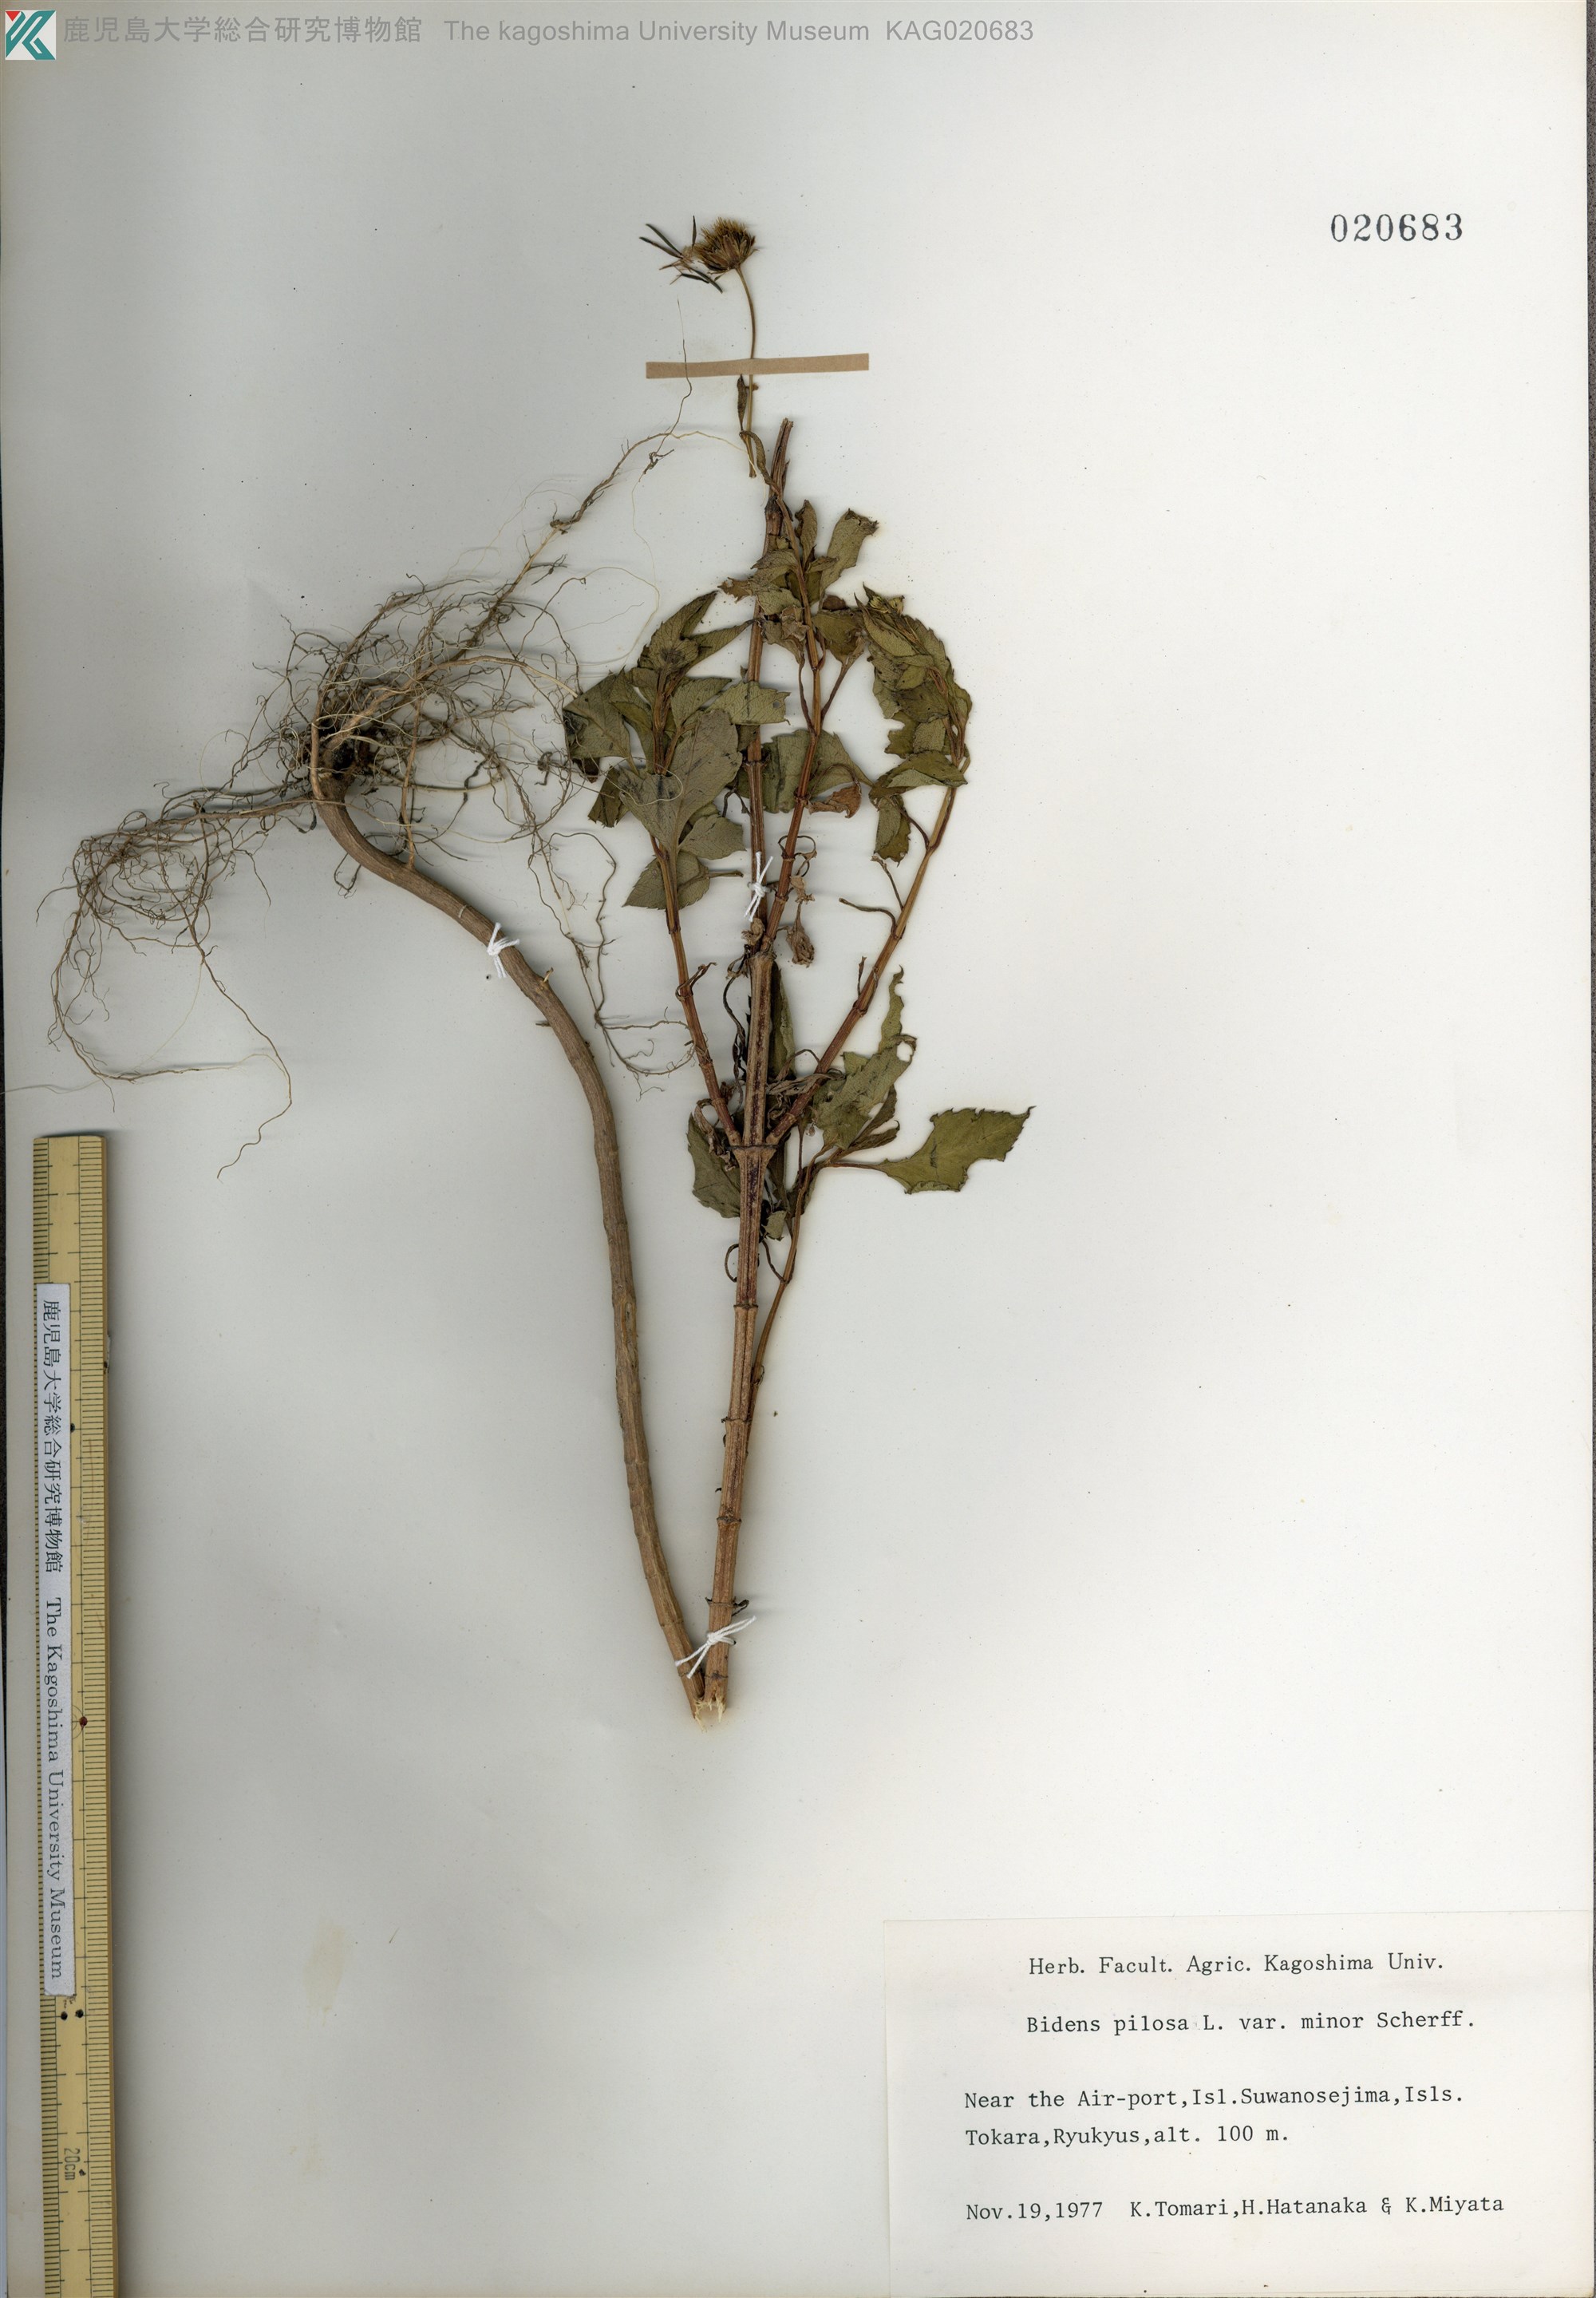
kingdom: Plantae
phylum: Tracheophyta
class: Magnoliopsida
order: Asterales
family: Asteraceae
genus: Bidens
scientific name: Bidens pilosa
